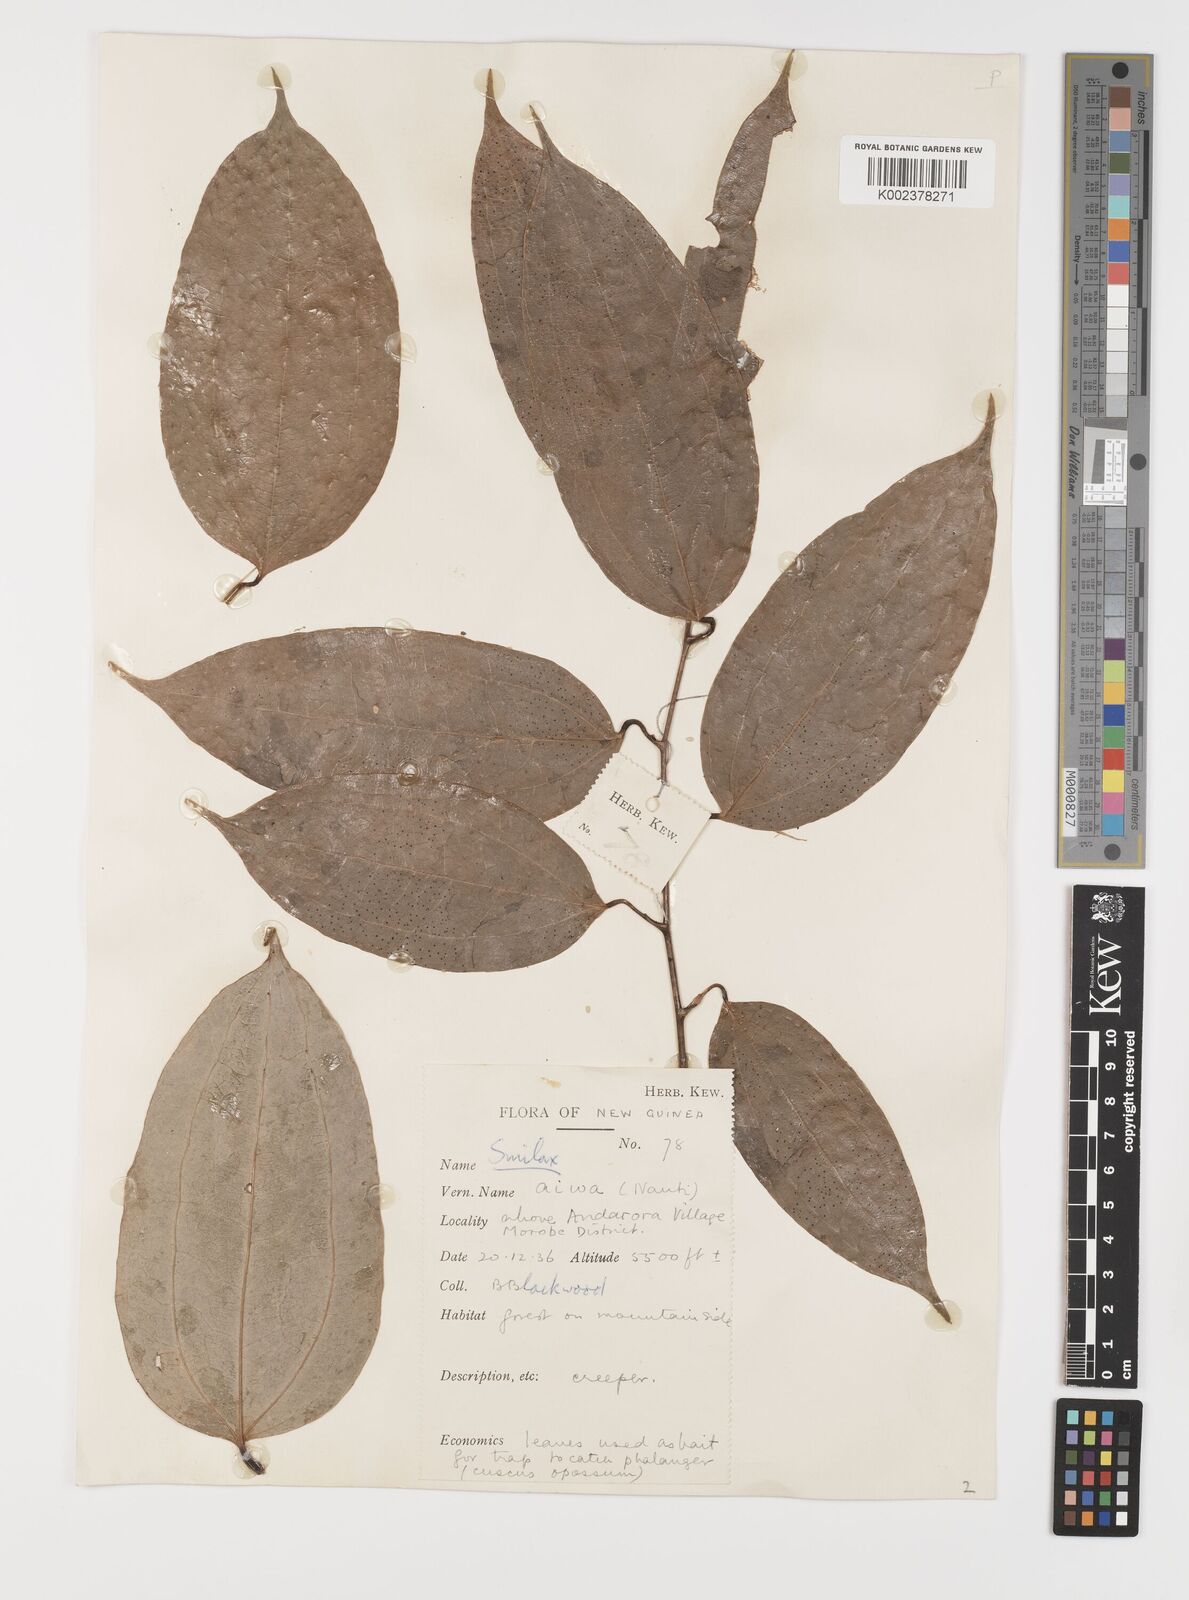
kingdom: Plantae
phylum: Tracheophyta
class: Liliopsida
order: Liliales
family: Smilacaceae
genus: Smilax
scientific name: Smilax
